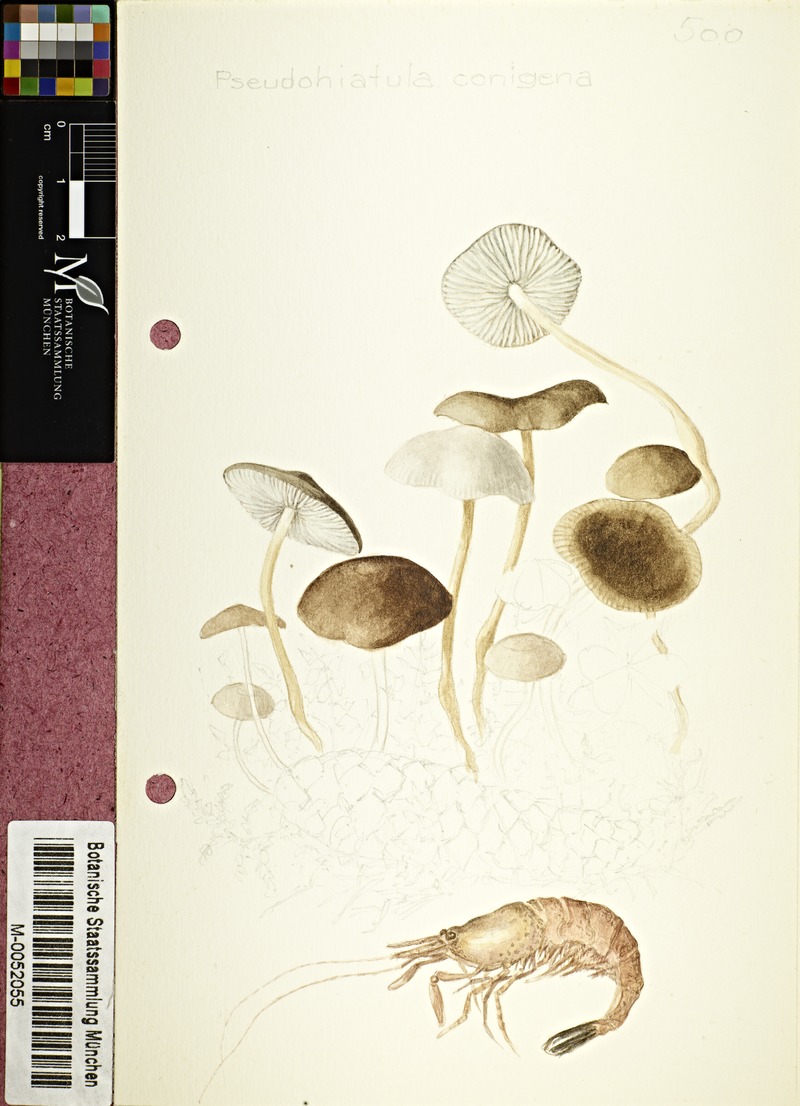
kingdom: Fungi
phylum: Basidiomycota
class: Agaricomycetes
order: Agaricales
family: Physalacriaceae
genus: Strobilurus
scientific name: Strobilurus esculentus
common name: Sprucecone cap
